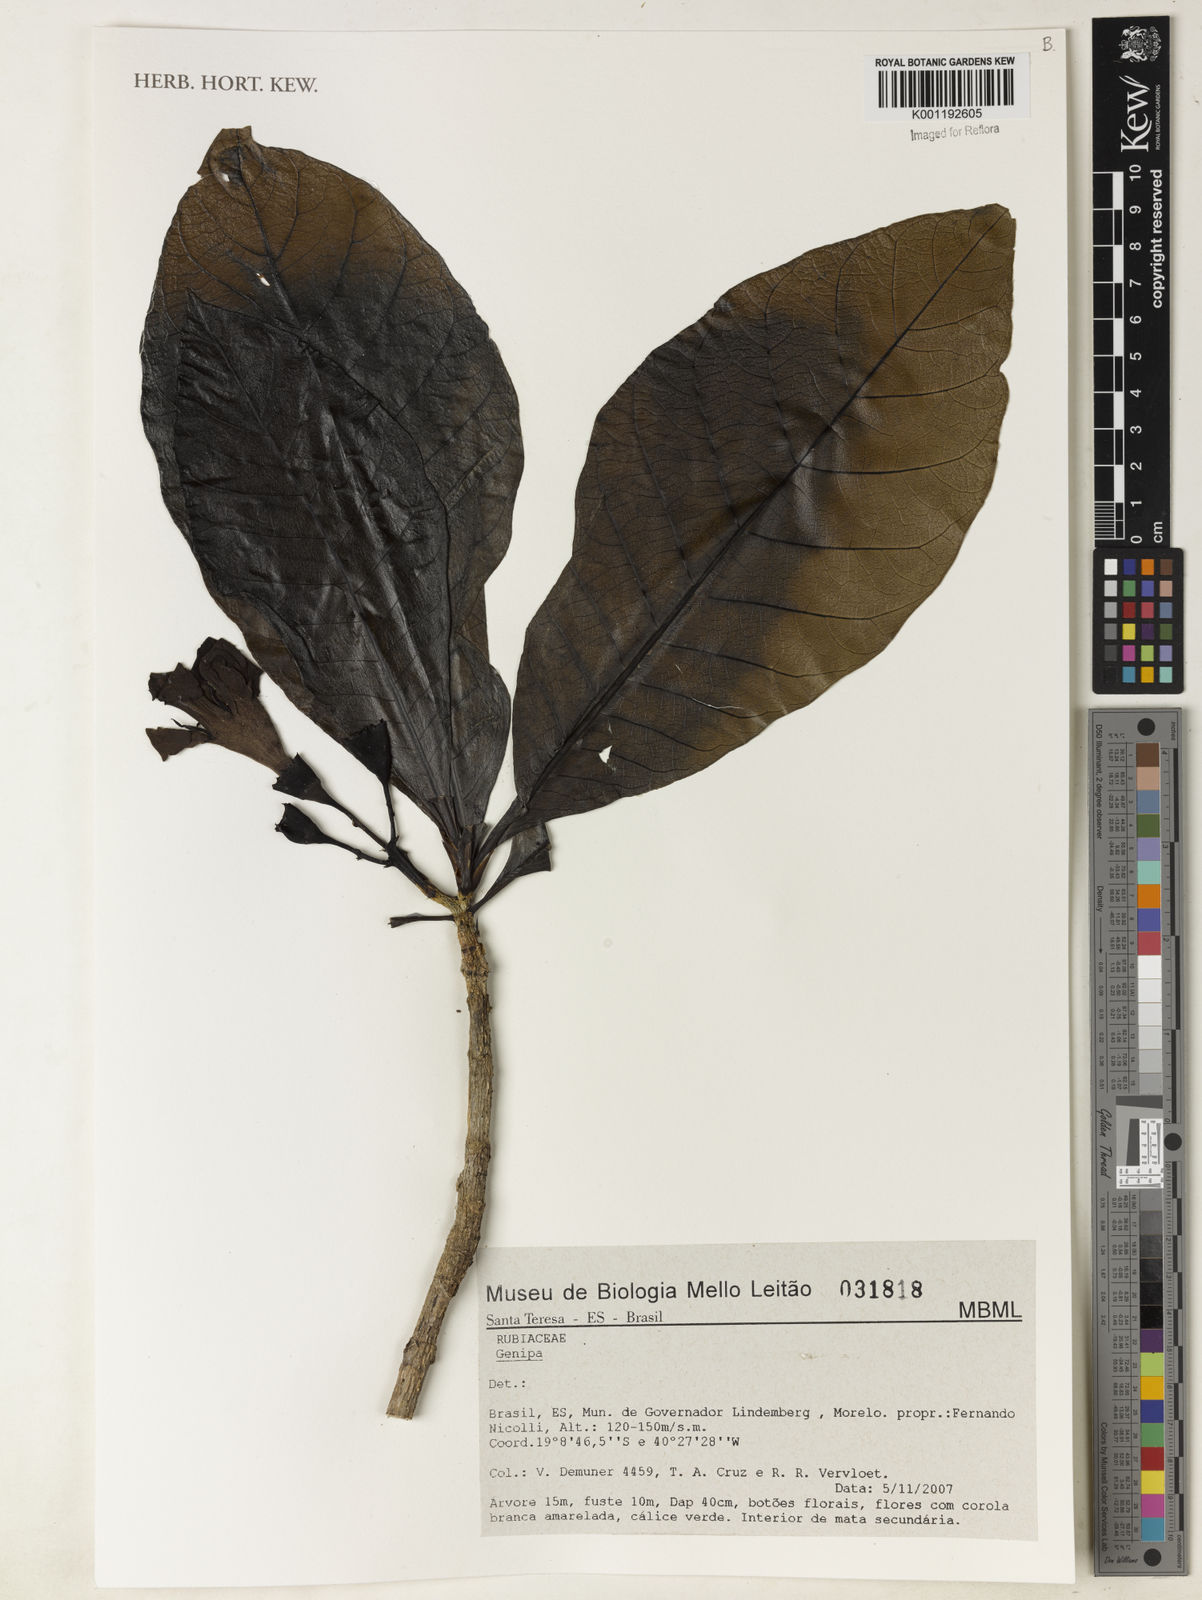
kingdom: Plantae
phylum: Tracheophyta
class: Magnoliopsida
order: Gentianales
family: Rubiaceae
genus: Genipa
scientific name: Genipa
